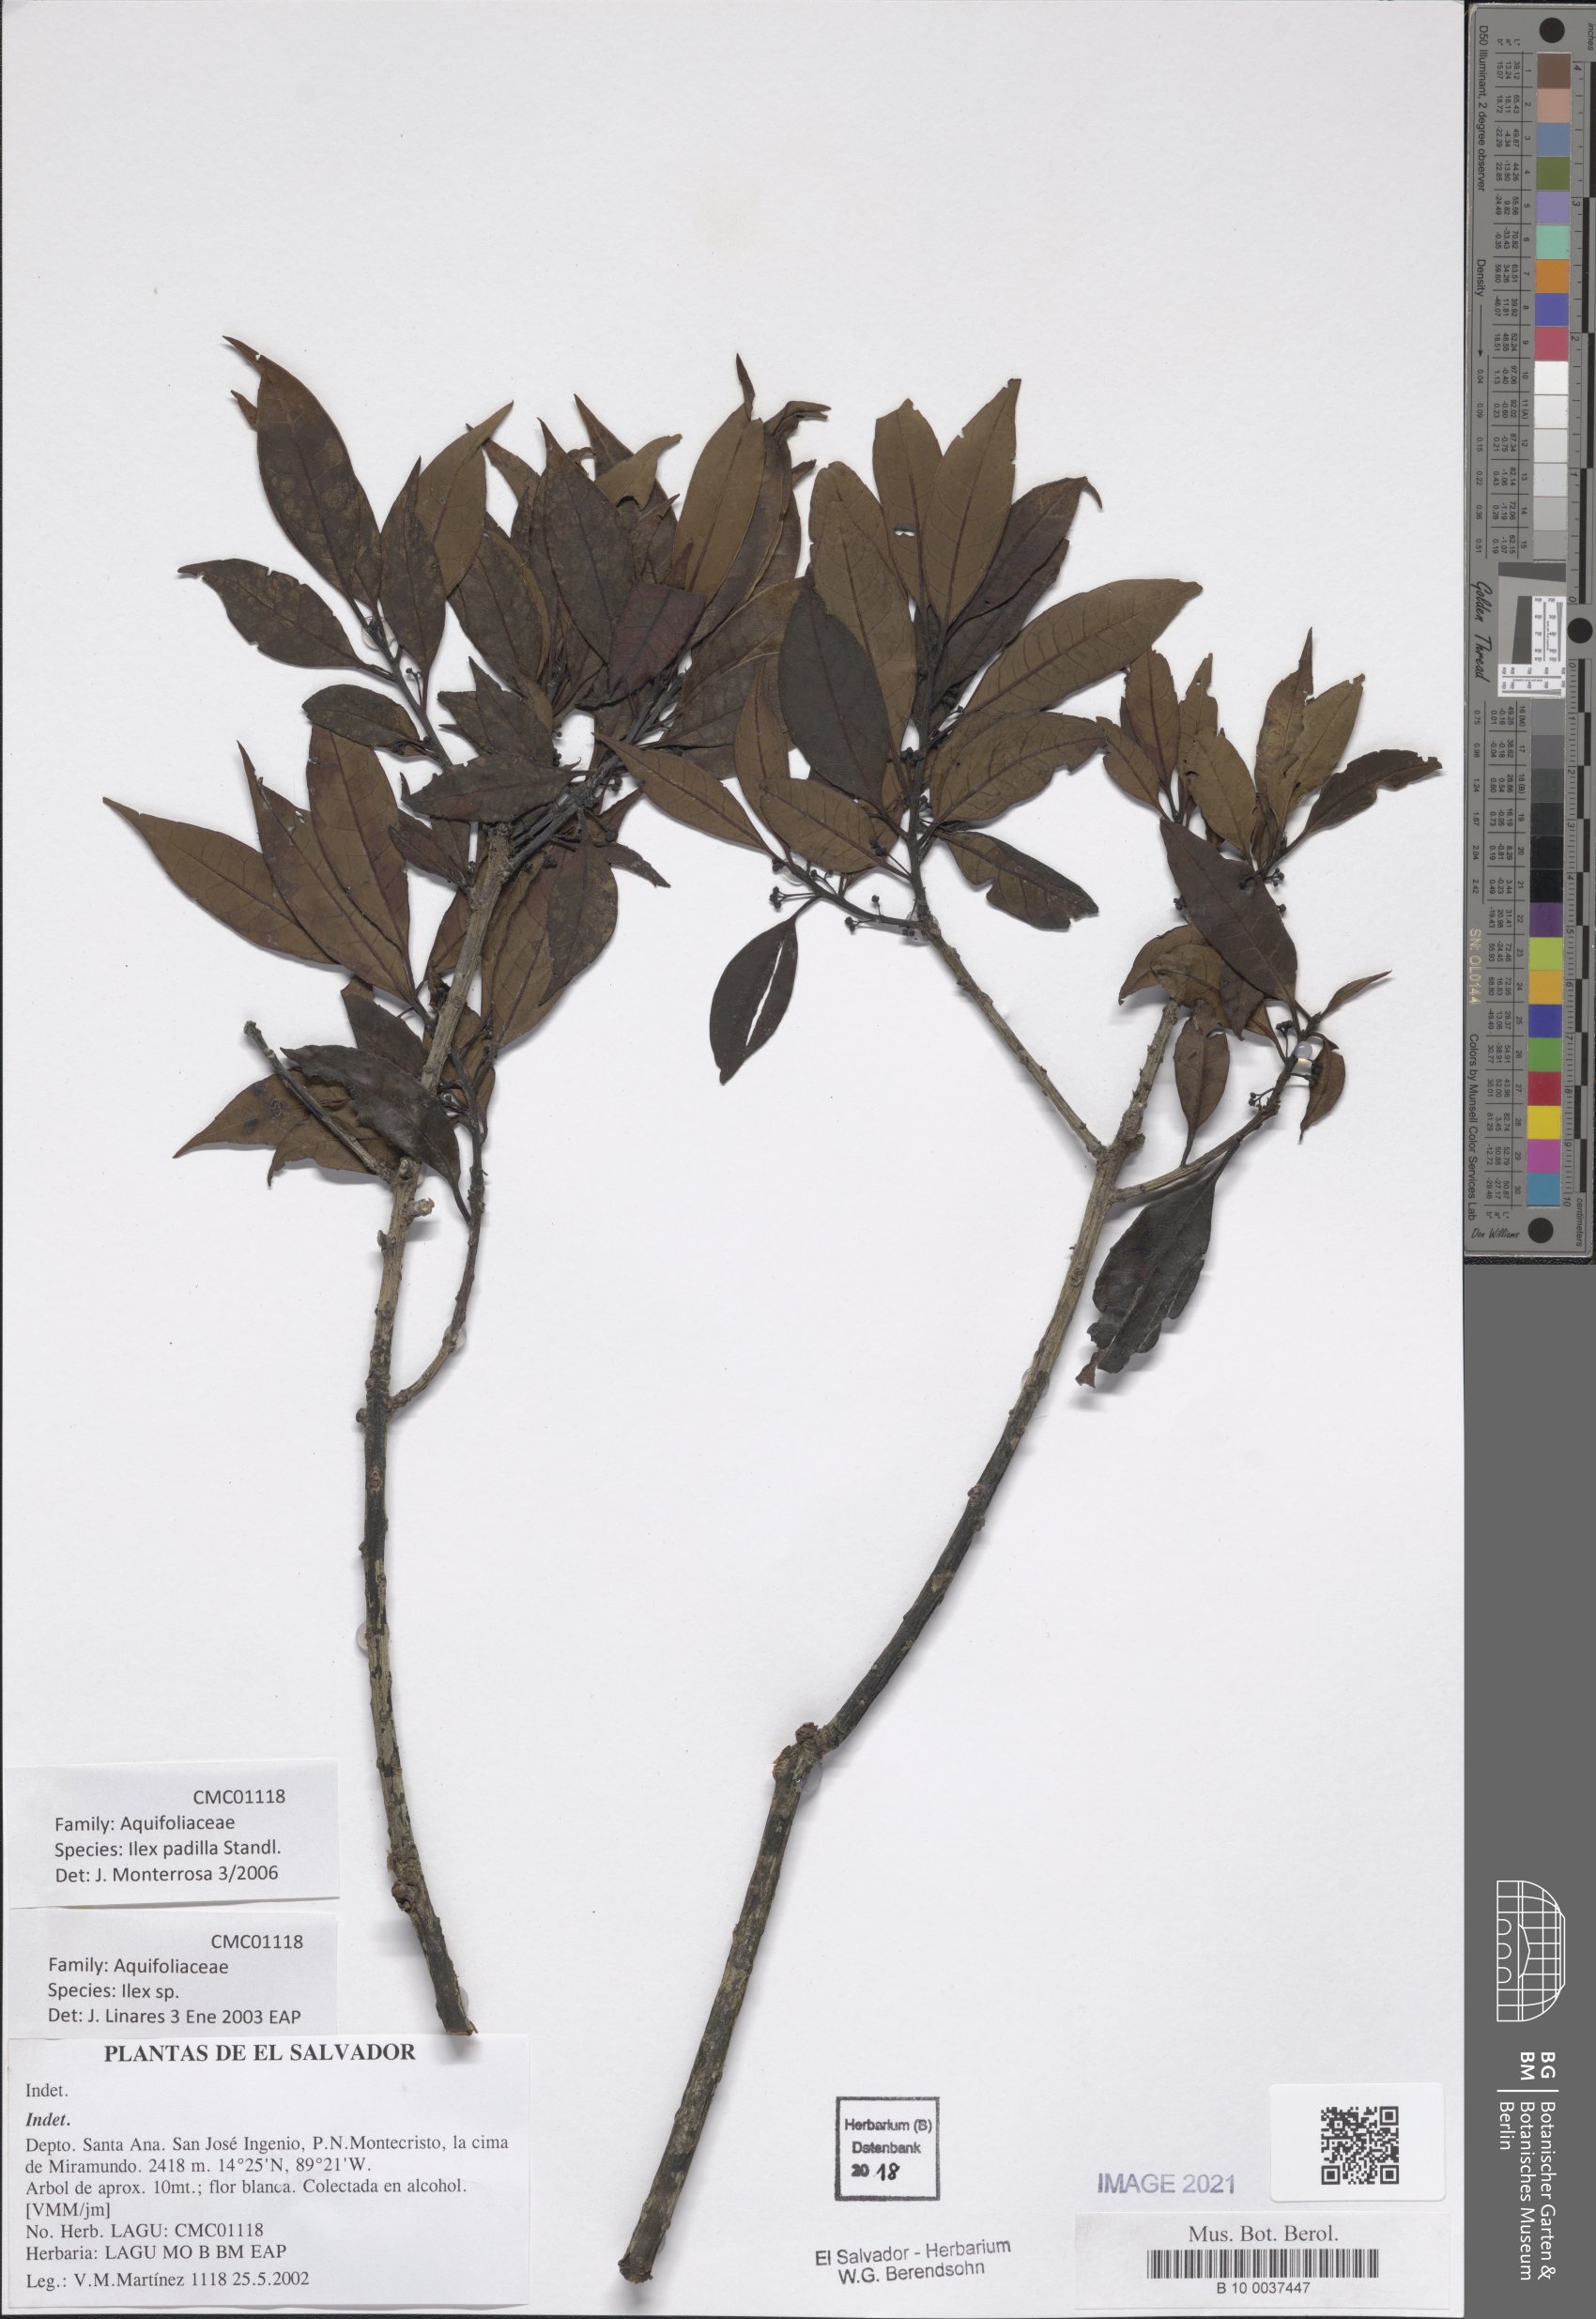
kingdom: Plantae
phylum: Tracheophyta
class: Magnoliopsida
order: Aquifoliales
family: Aquifoliaceae
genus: Ilex
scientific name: Ilex liebmannii
